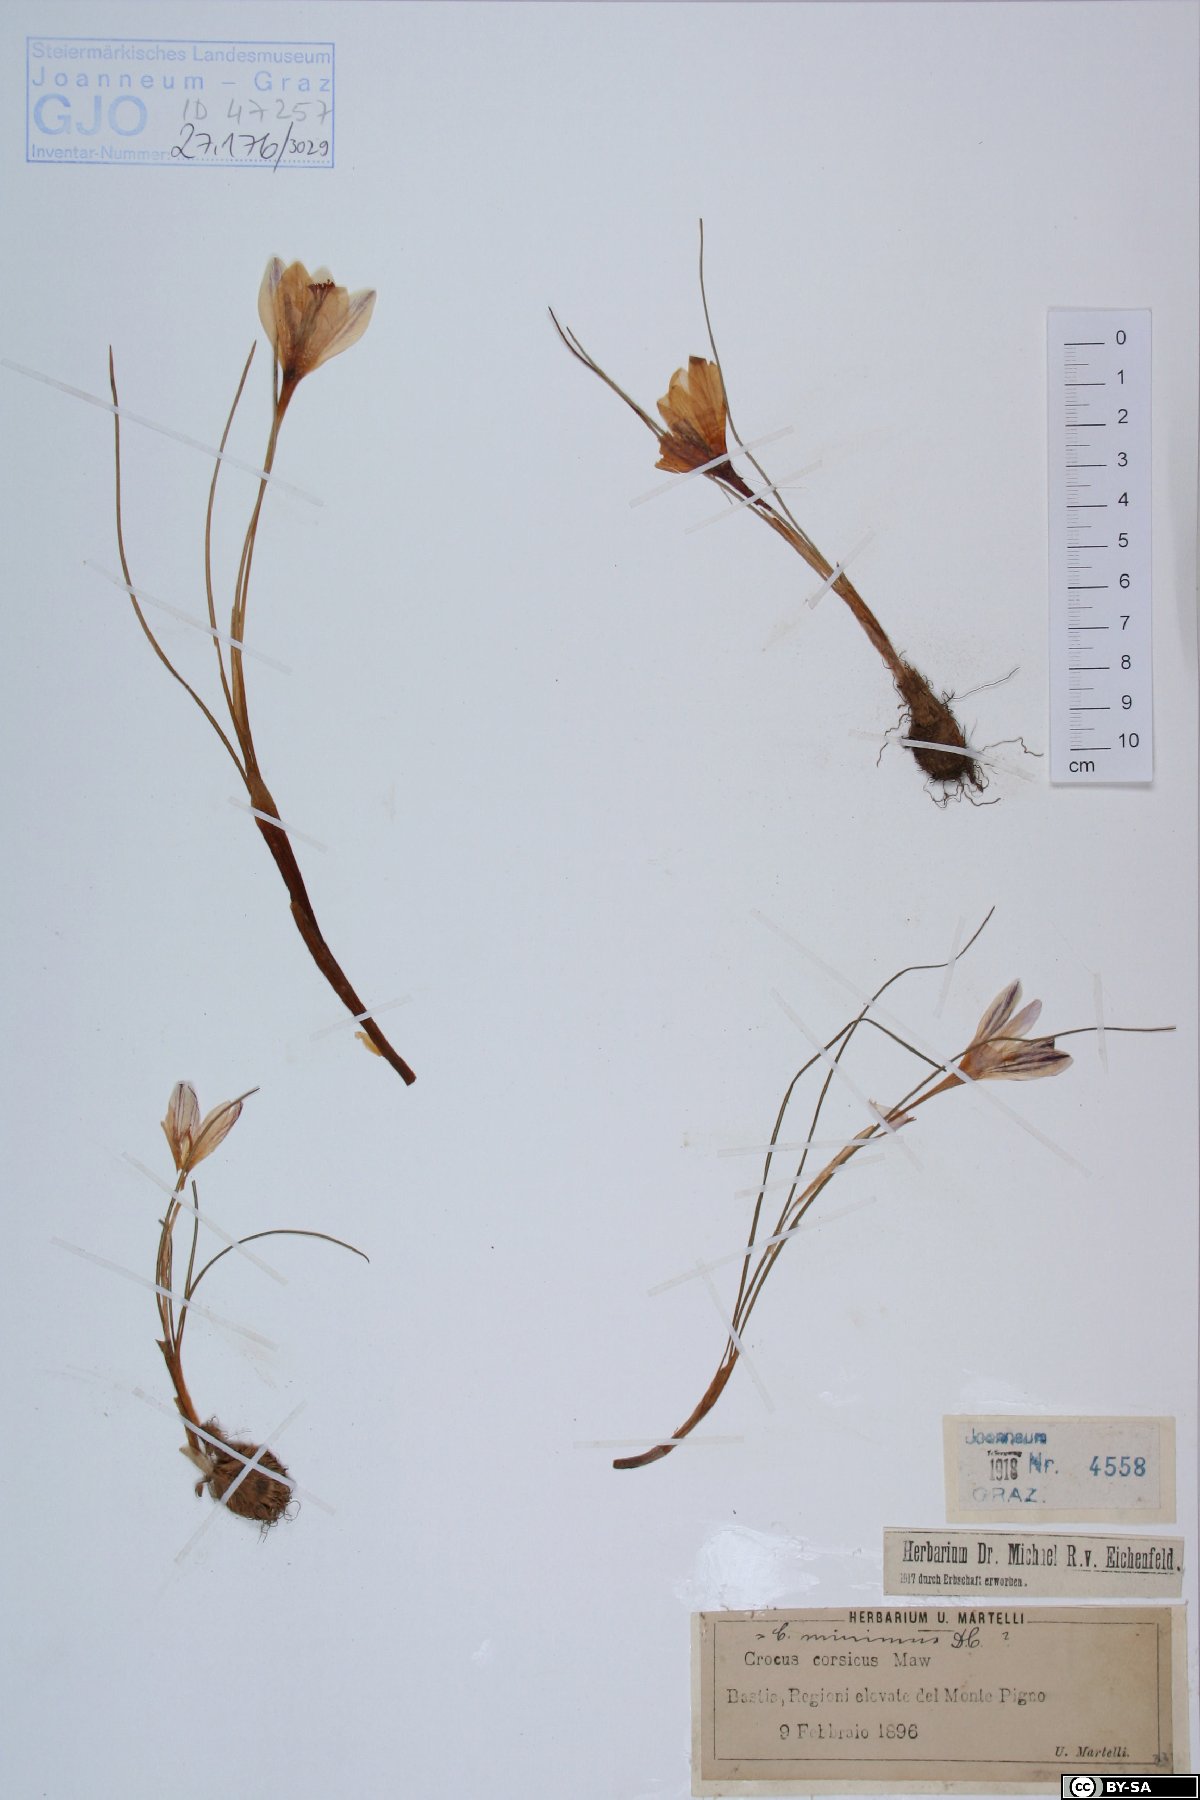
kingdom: Plantae
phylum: Tracheophyta
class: Liliopsida
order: Asparagales
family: Iridaceae
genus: Crocus
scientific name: Crocus corsicus
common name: Corsican crocus
